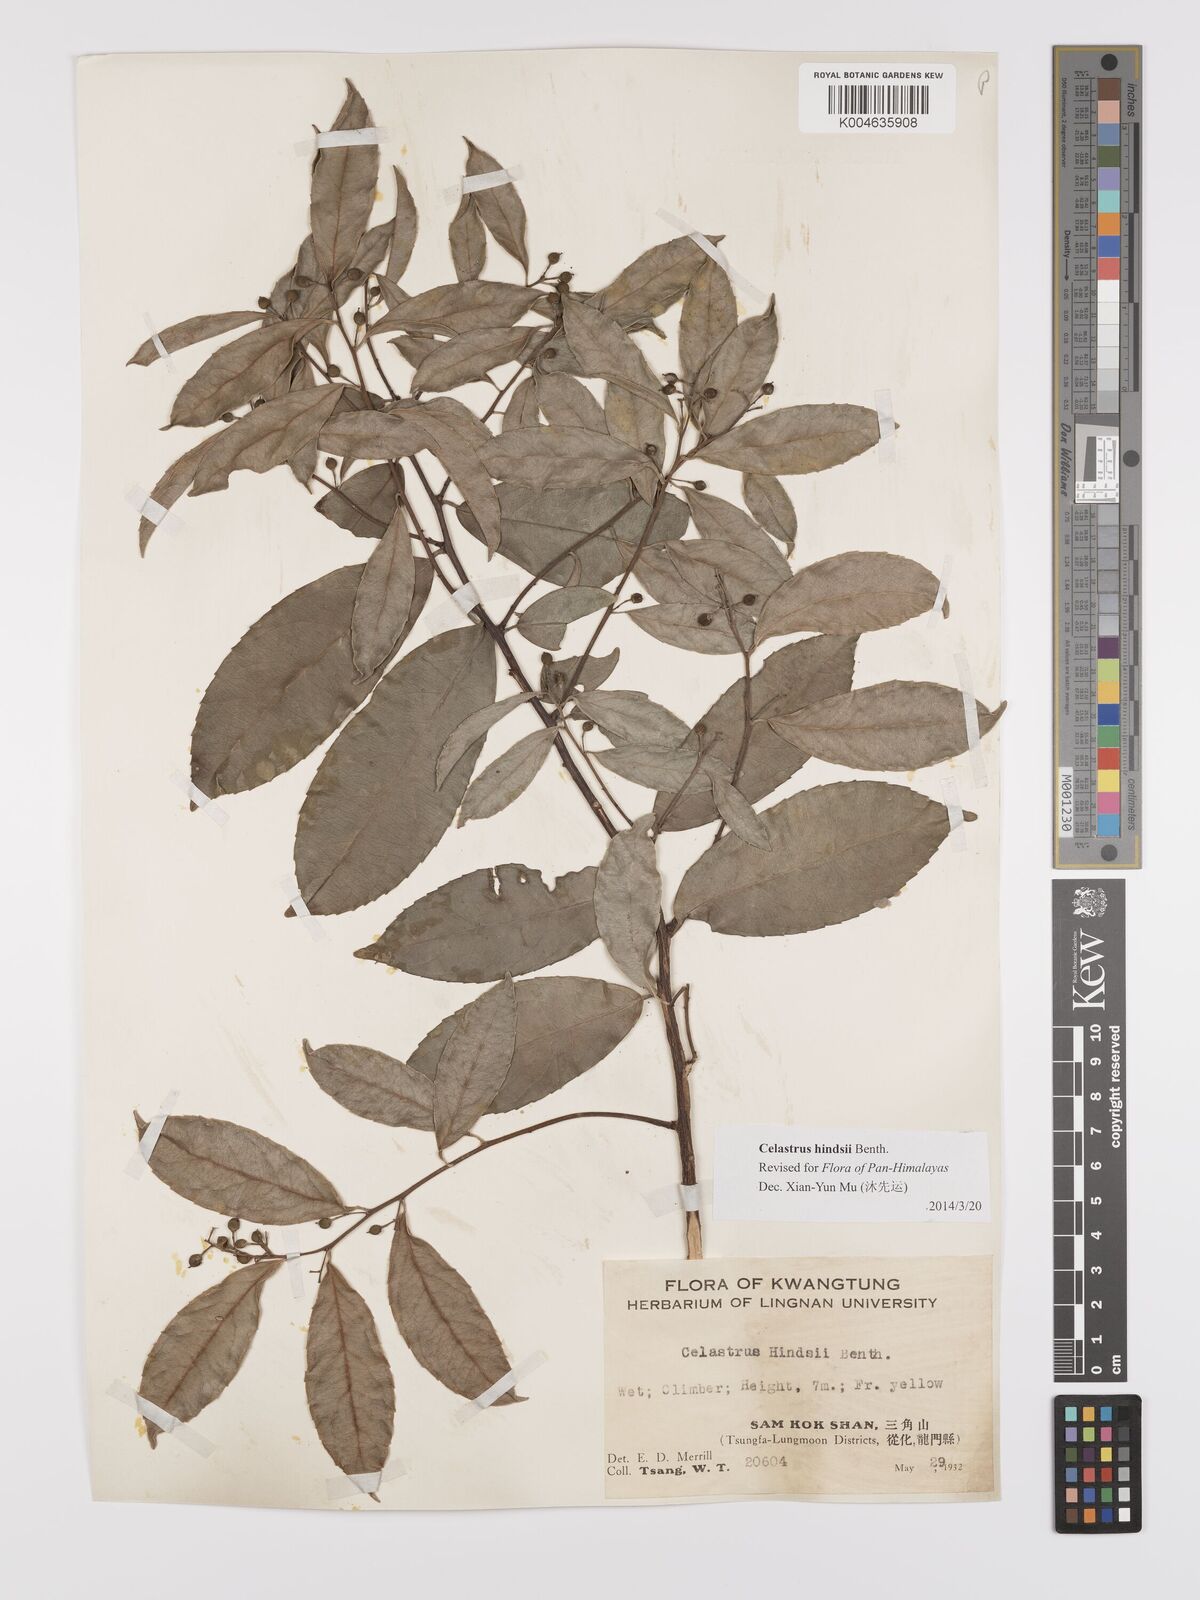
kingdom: Plantae
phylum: Tracheophyta
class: Magnoliopsida
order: Celastrales
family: Celastraceae
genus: Celastrus
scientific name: Celastrus hindsii
